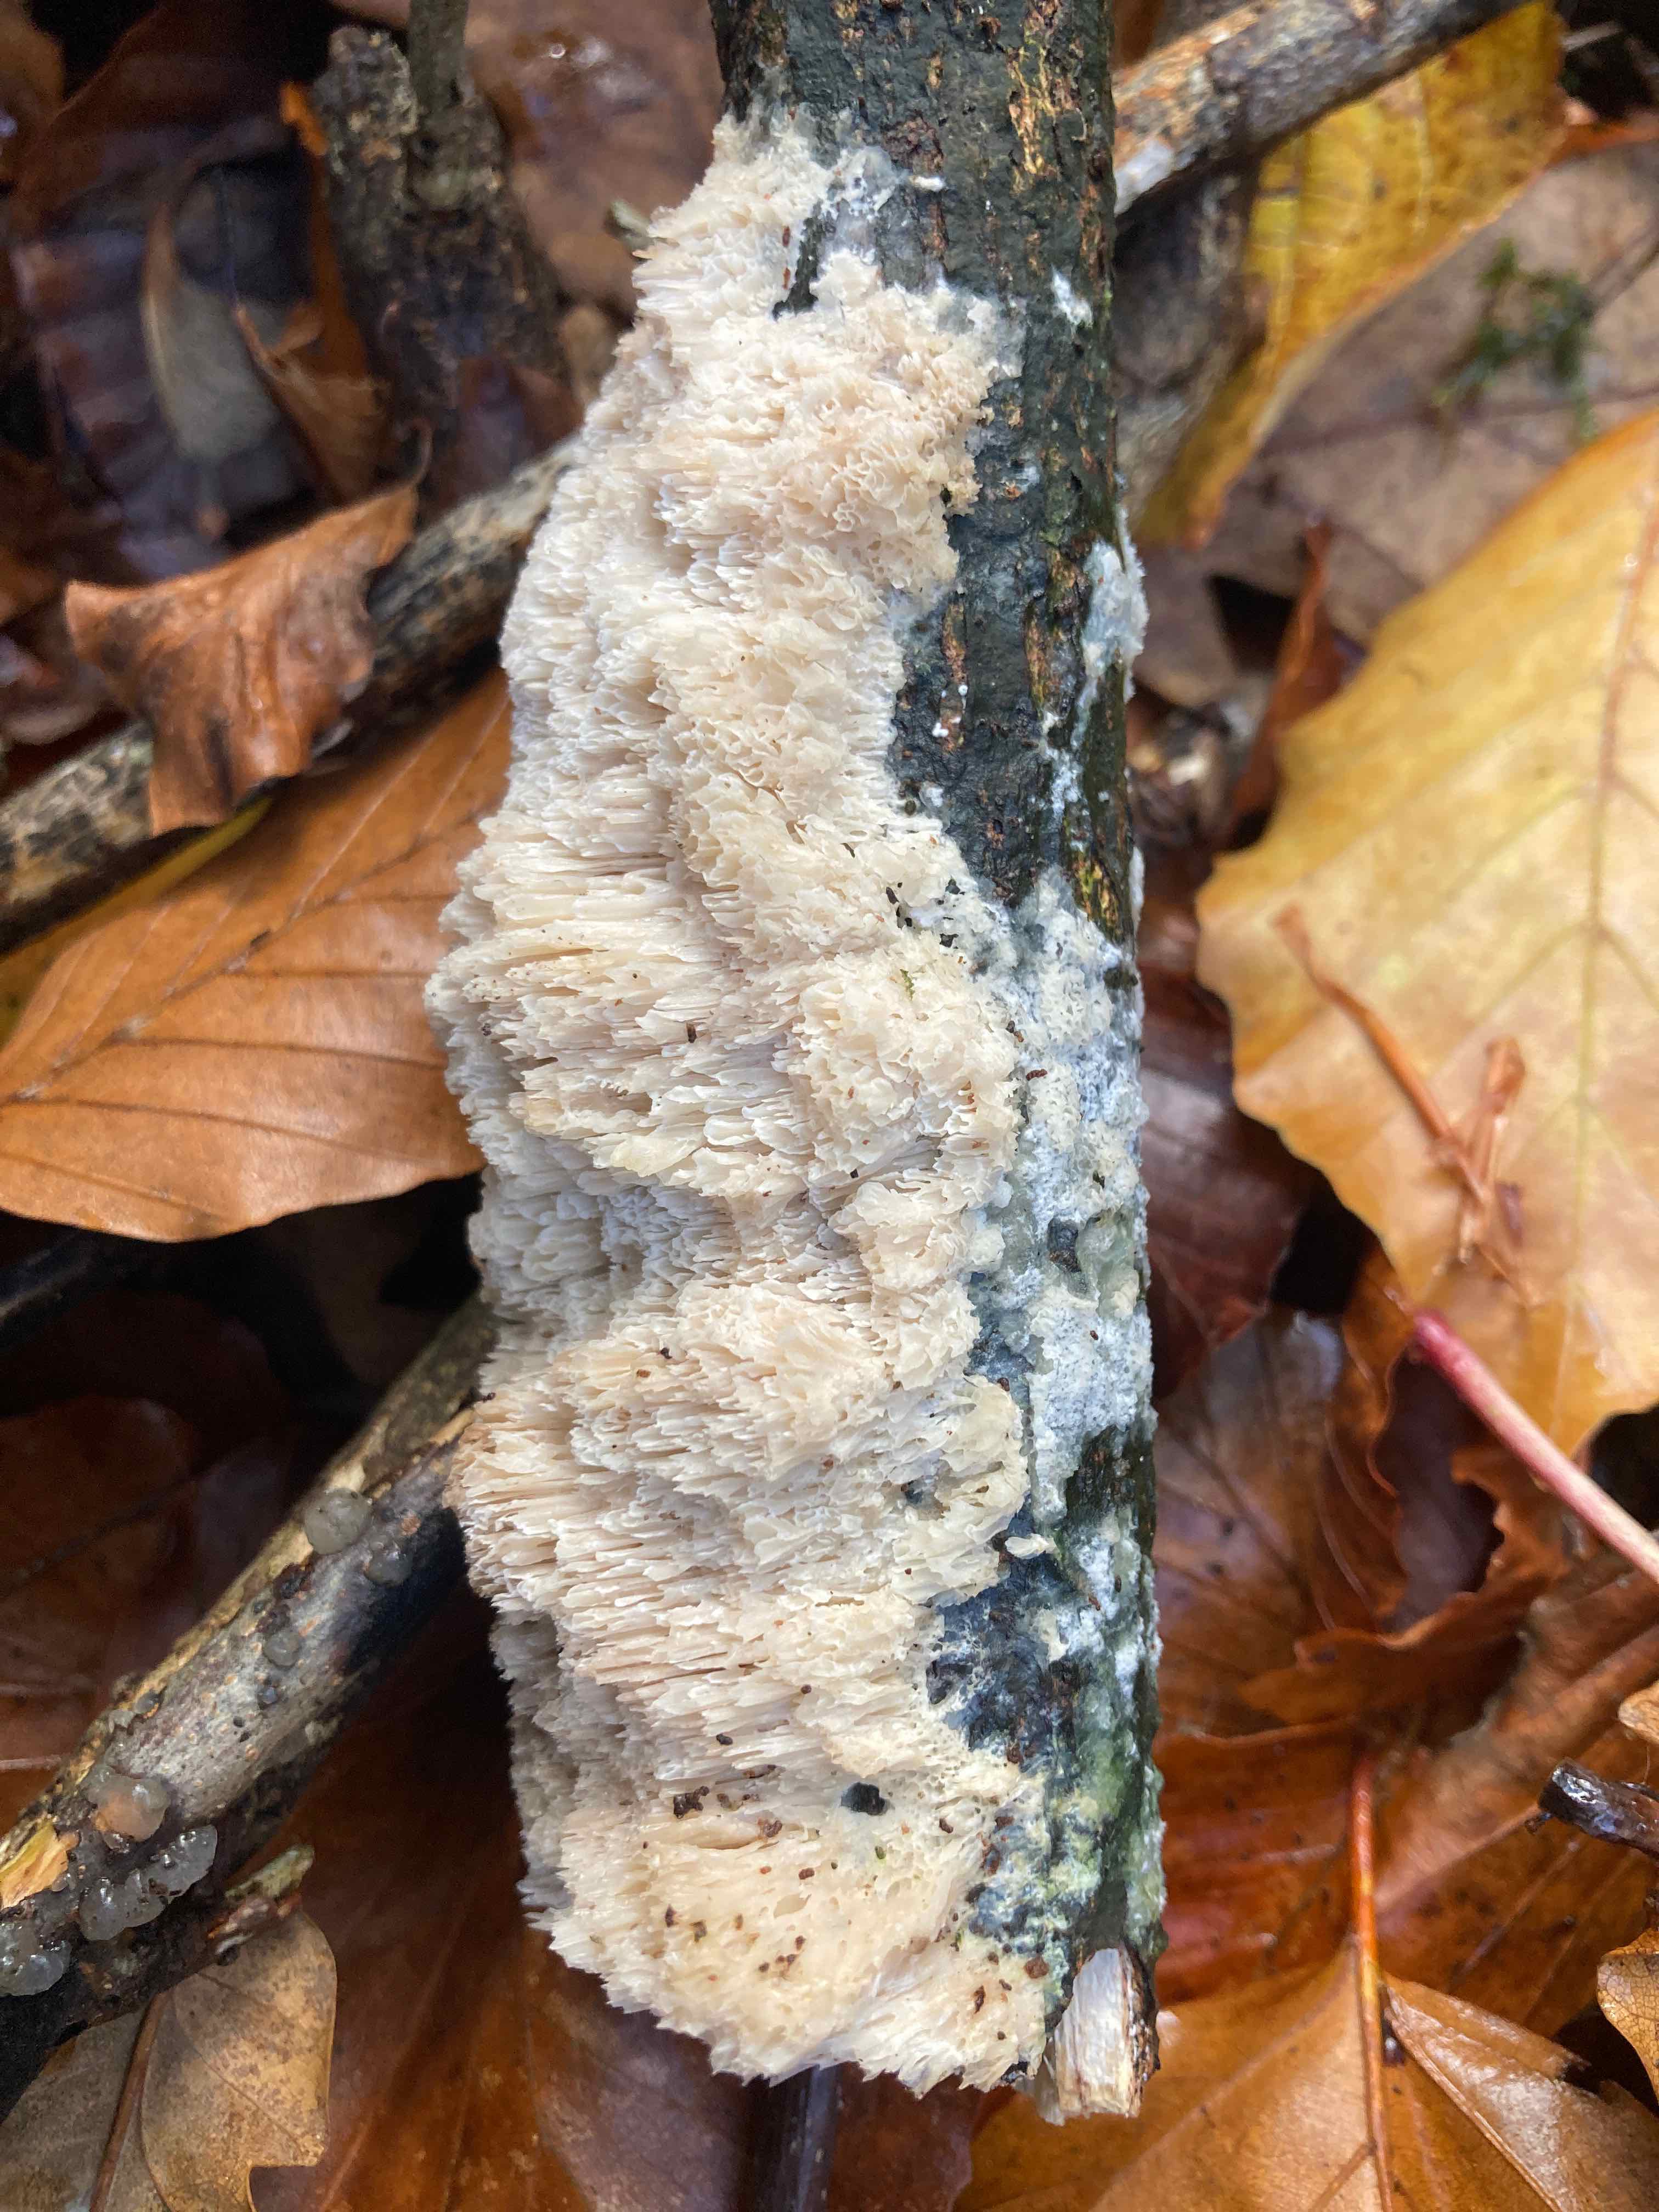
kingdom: Fungi
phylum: Basidiomycota
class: Agaricomycetes
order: Polyporales
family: Irpicaceae
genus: Irpex
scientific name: Irpex latemarginatus
